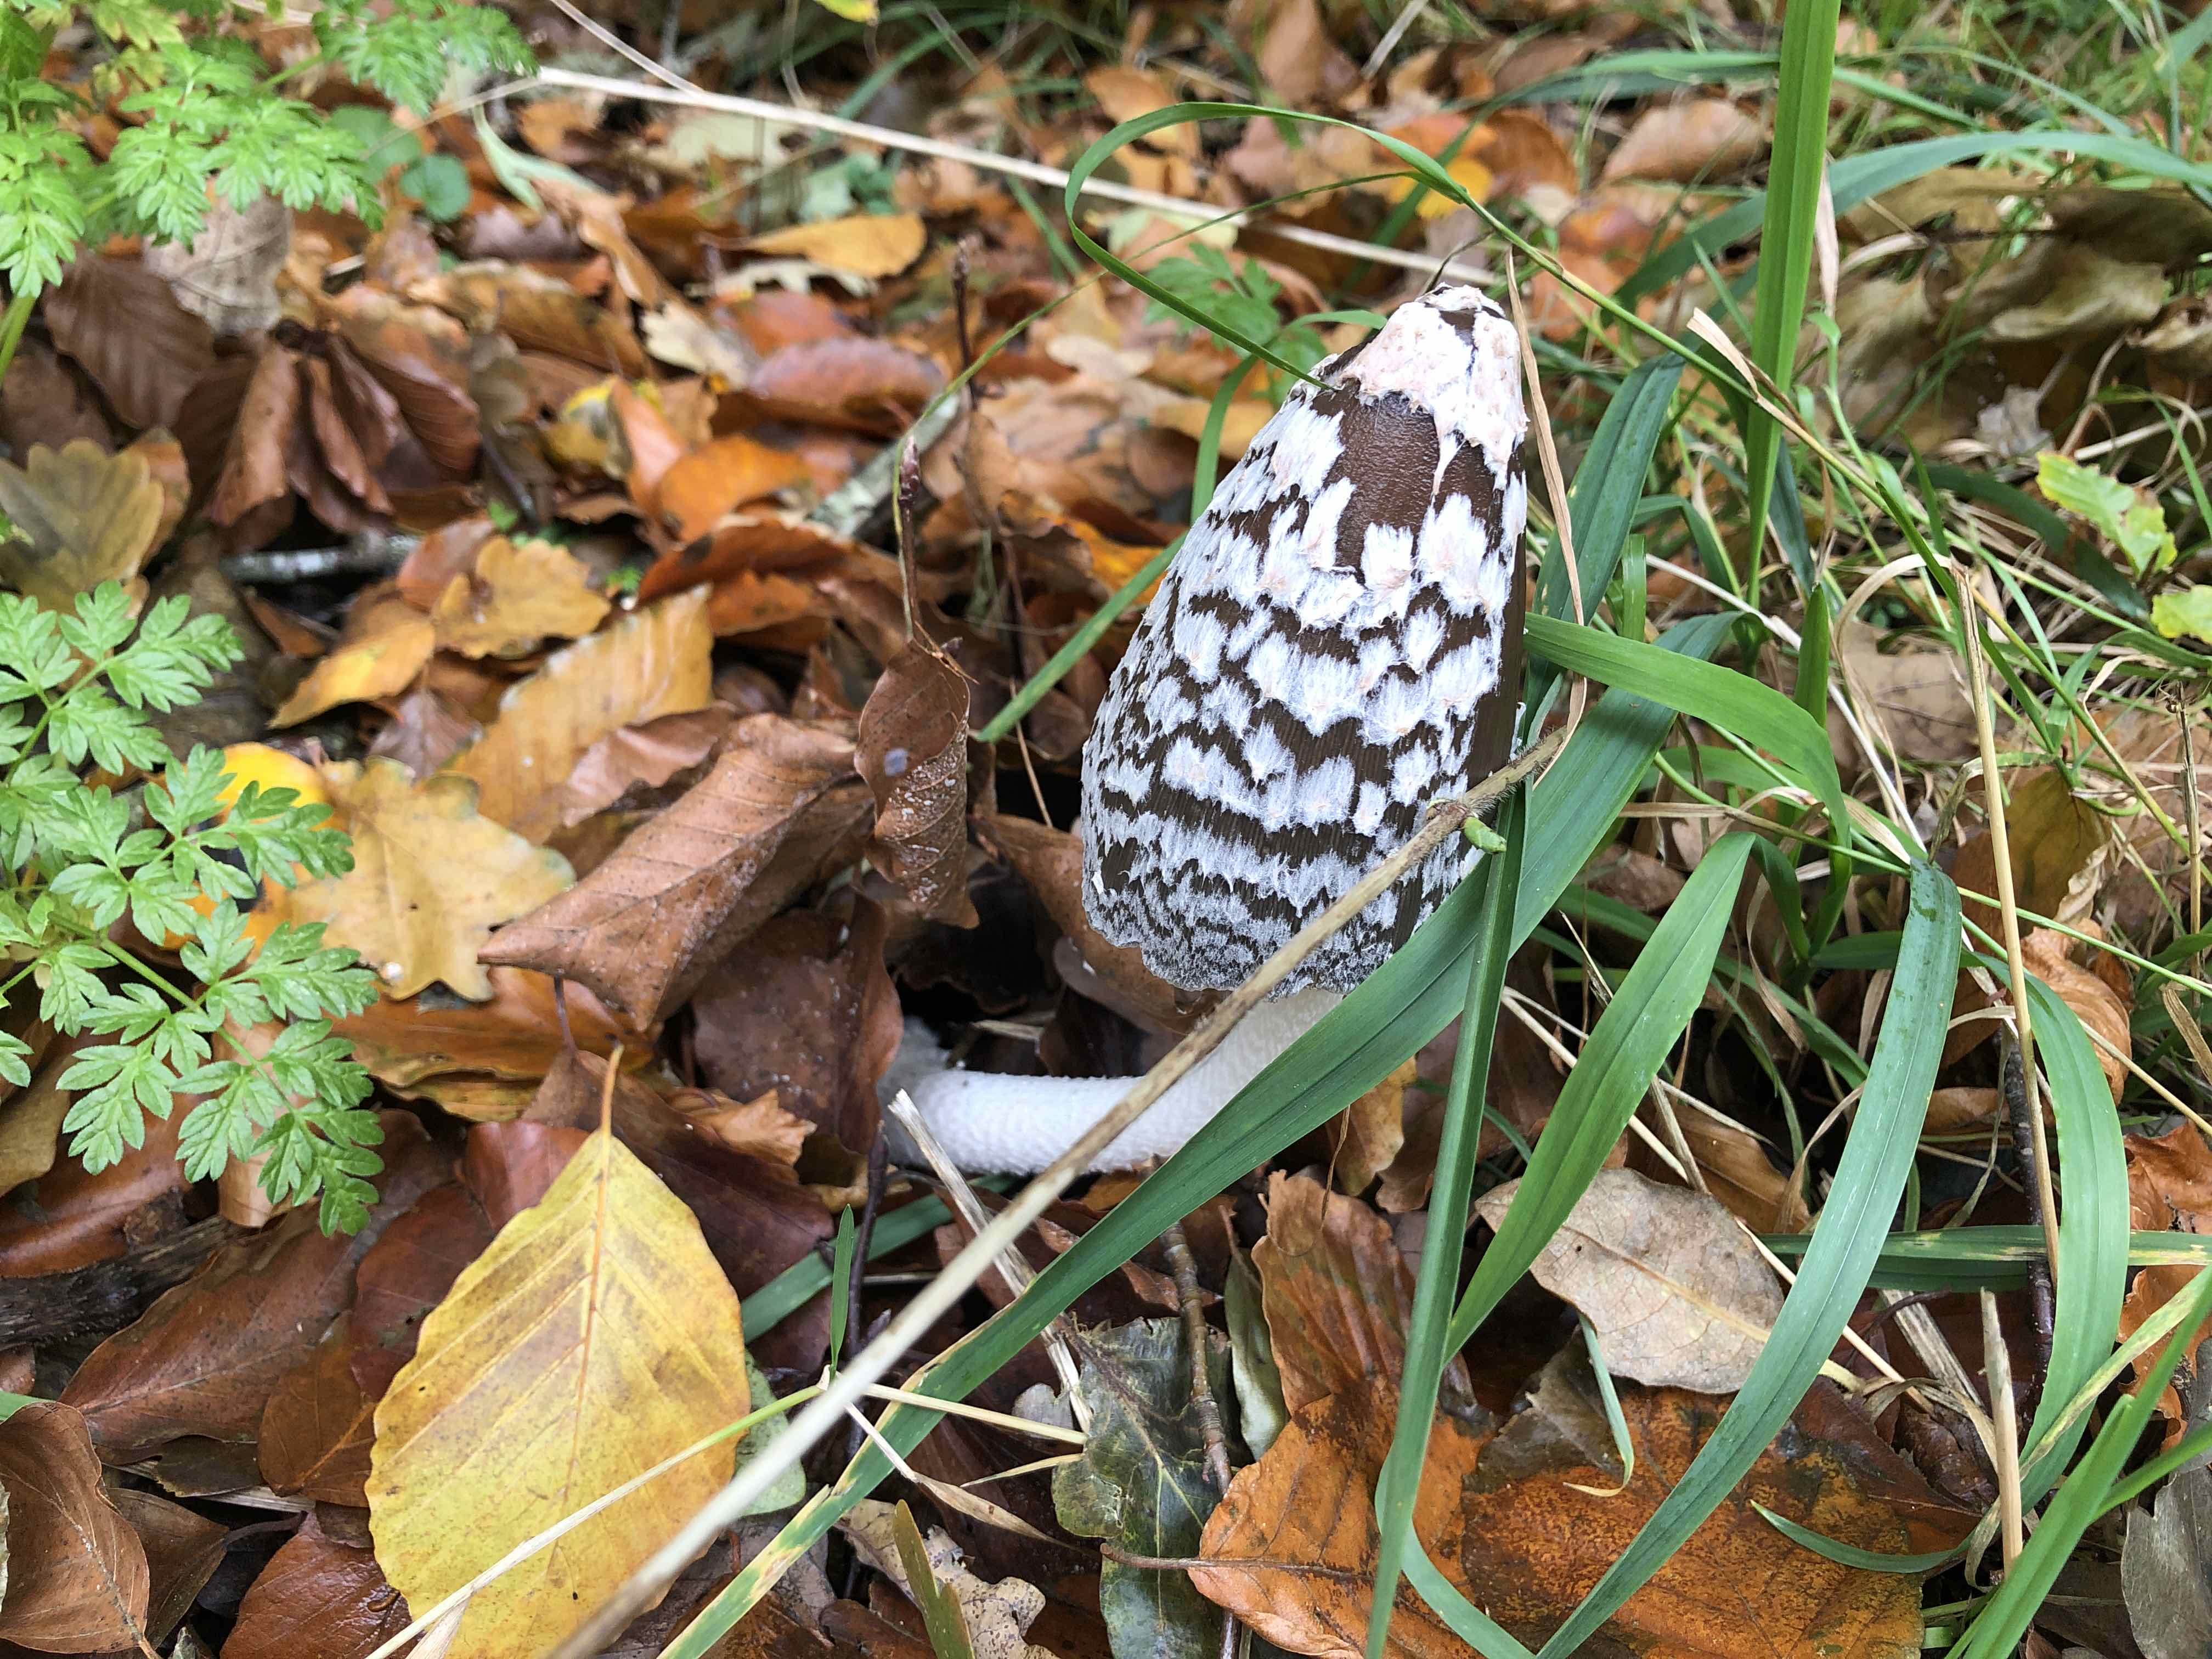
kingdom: Fungi
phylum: Basidiomycota
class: Agaricomycetes
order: Agaricales
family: Psathyrellaceae
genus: Coprinopsis
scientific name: Coprinopsis picacea
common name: skade-blækhat
